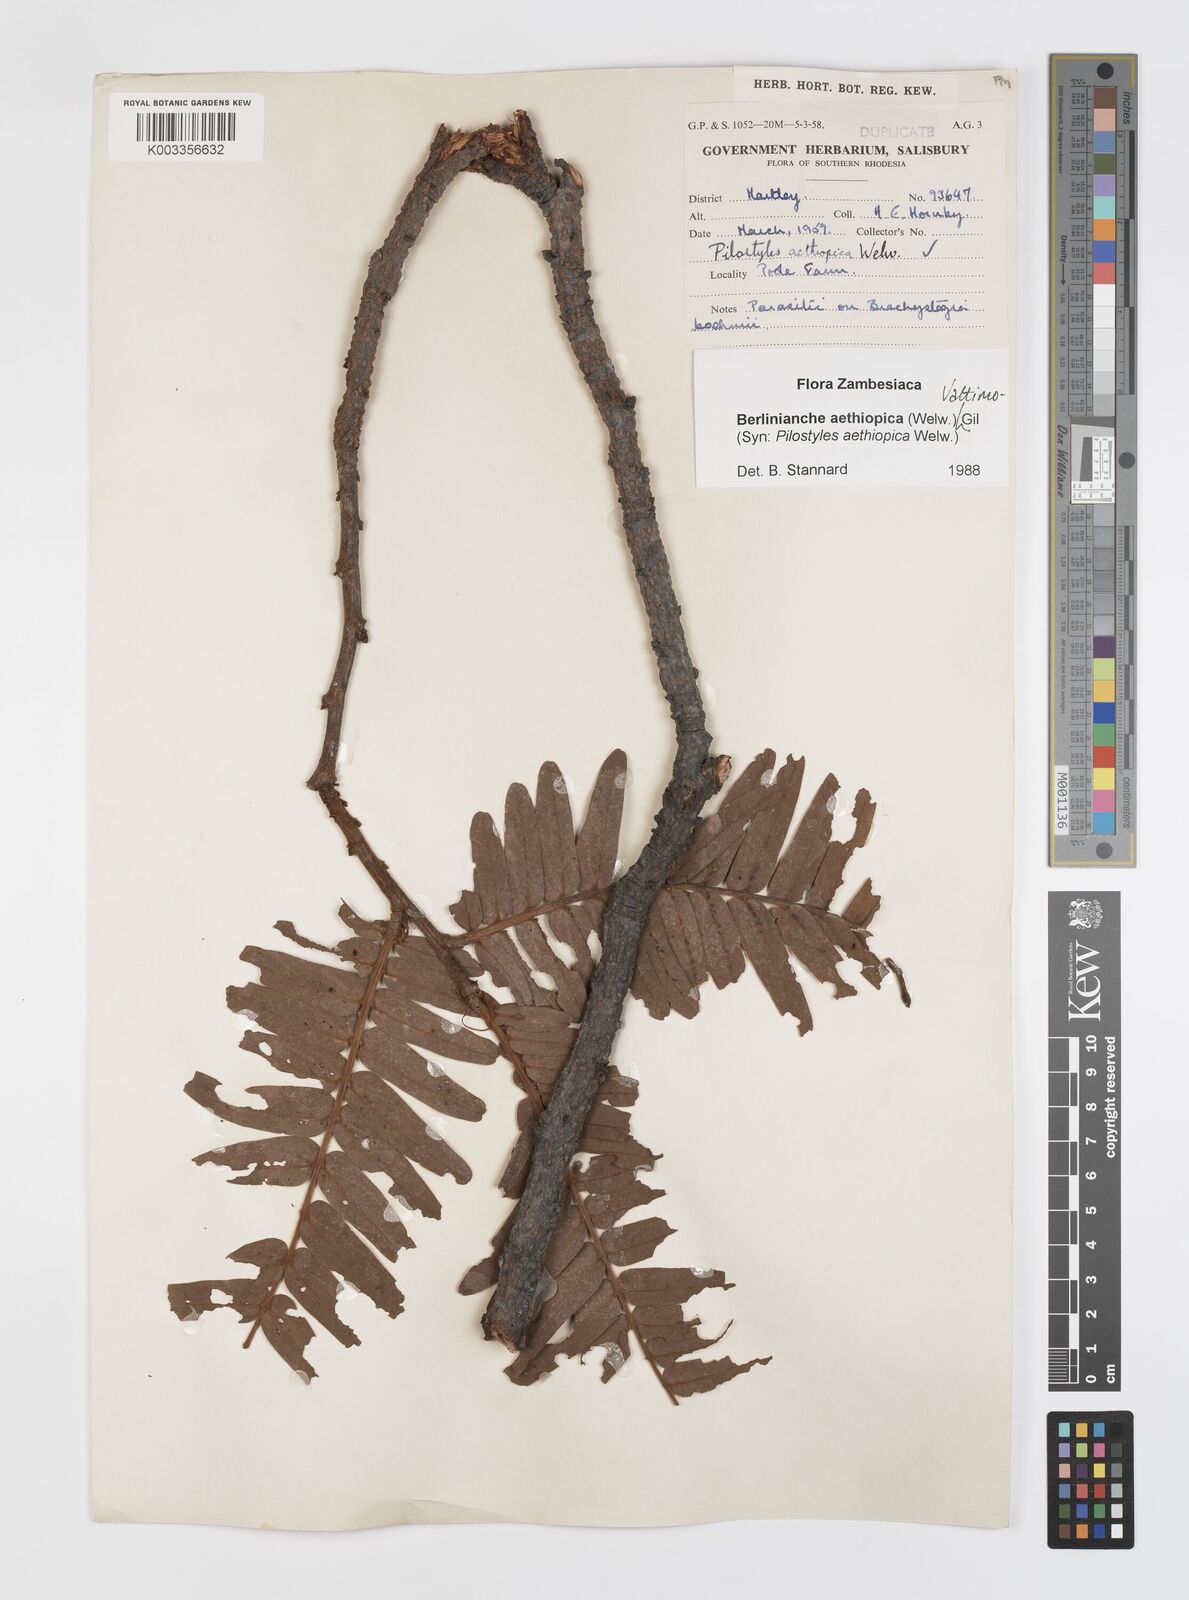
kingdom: Plantae
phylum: Tracheophyta
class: Magnoliopsida
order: Cucurbitales
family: Apodanthaceae
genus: Pilostyles
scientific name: Pilostyles aethiopica
